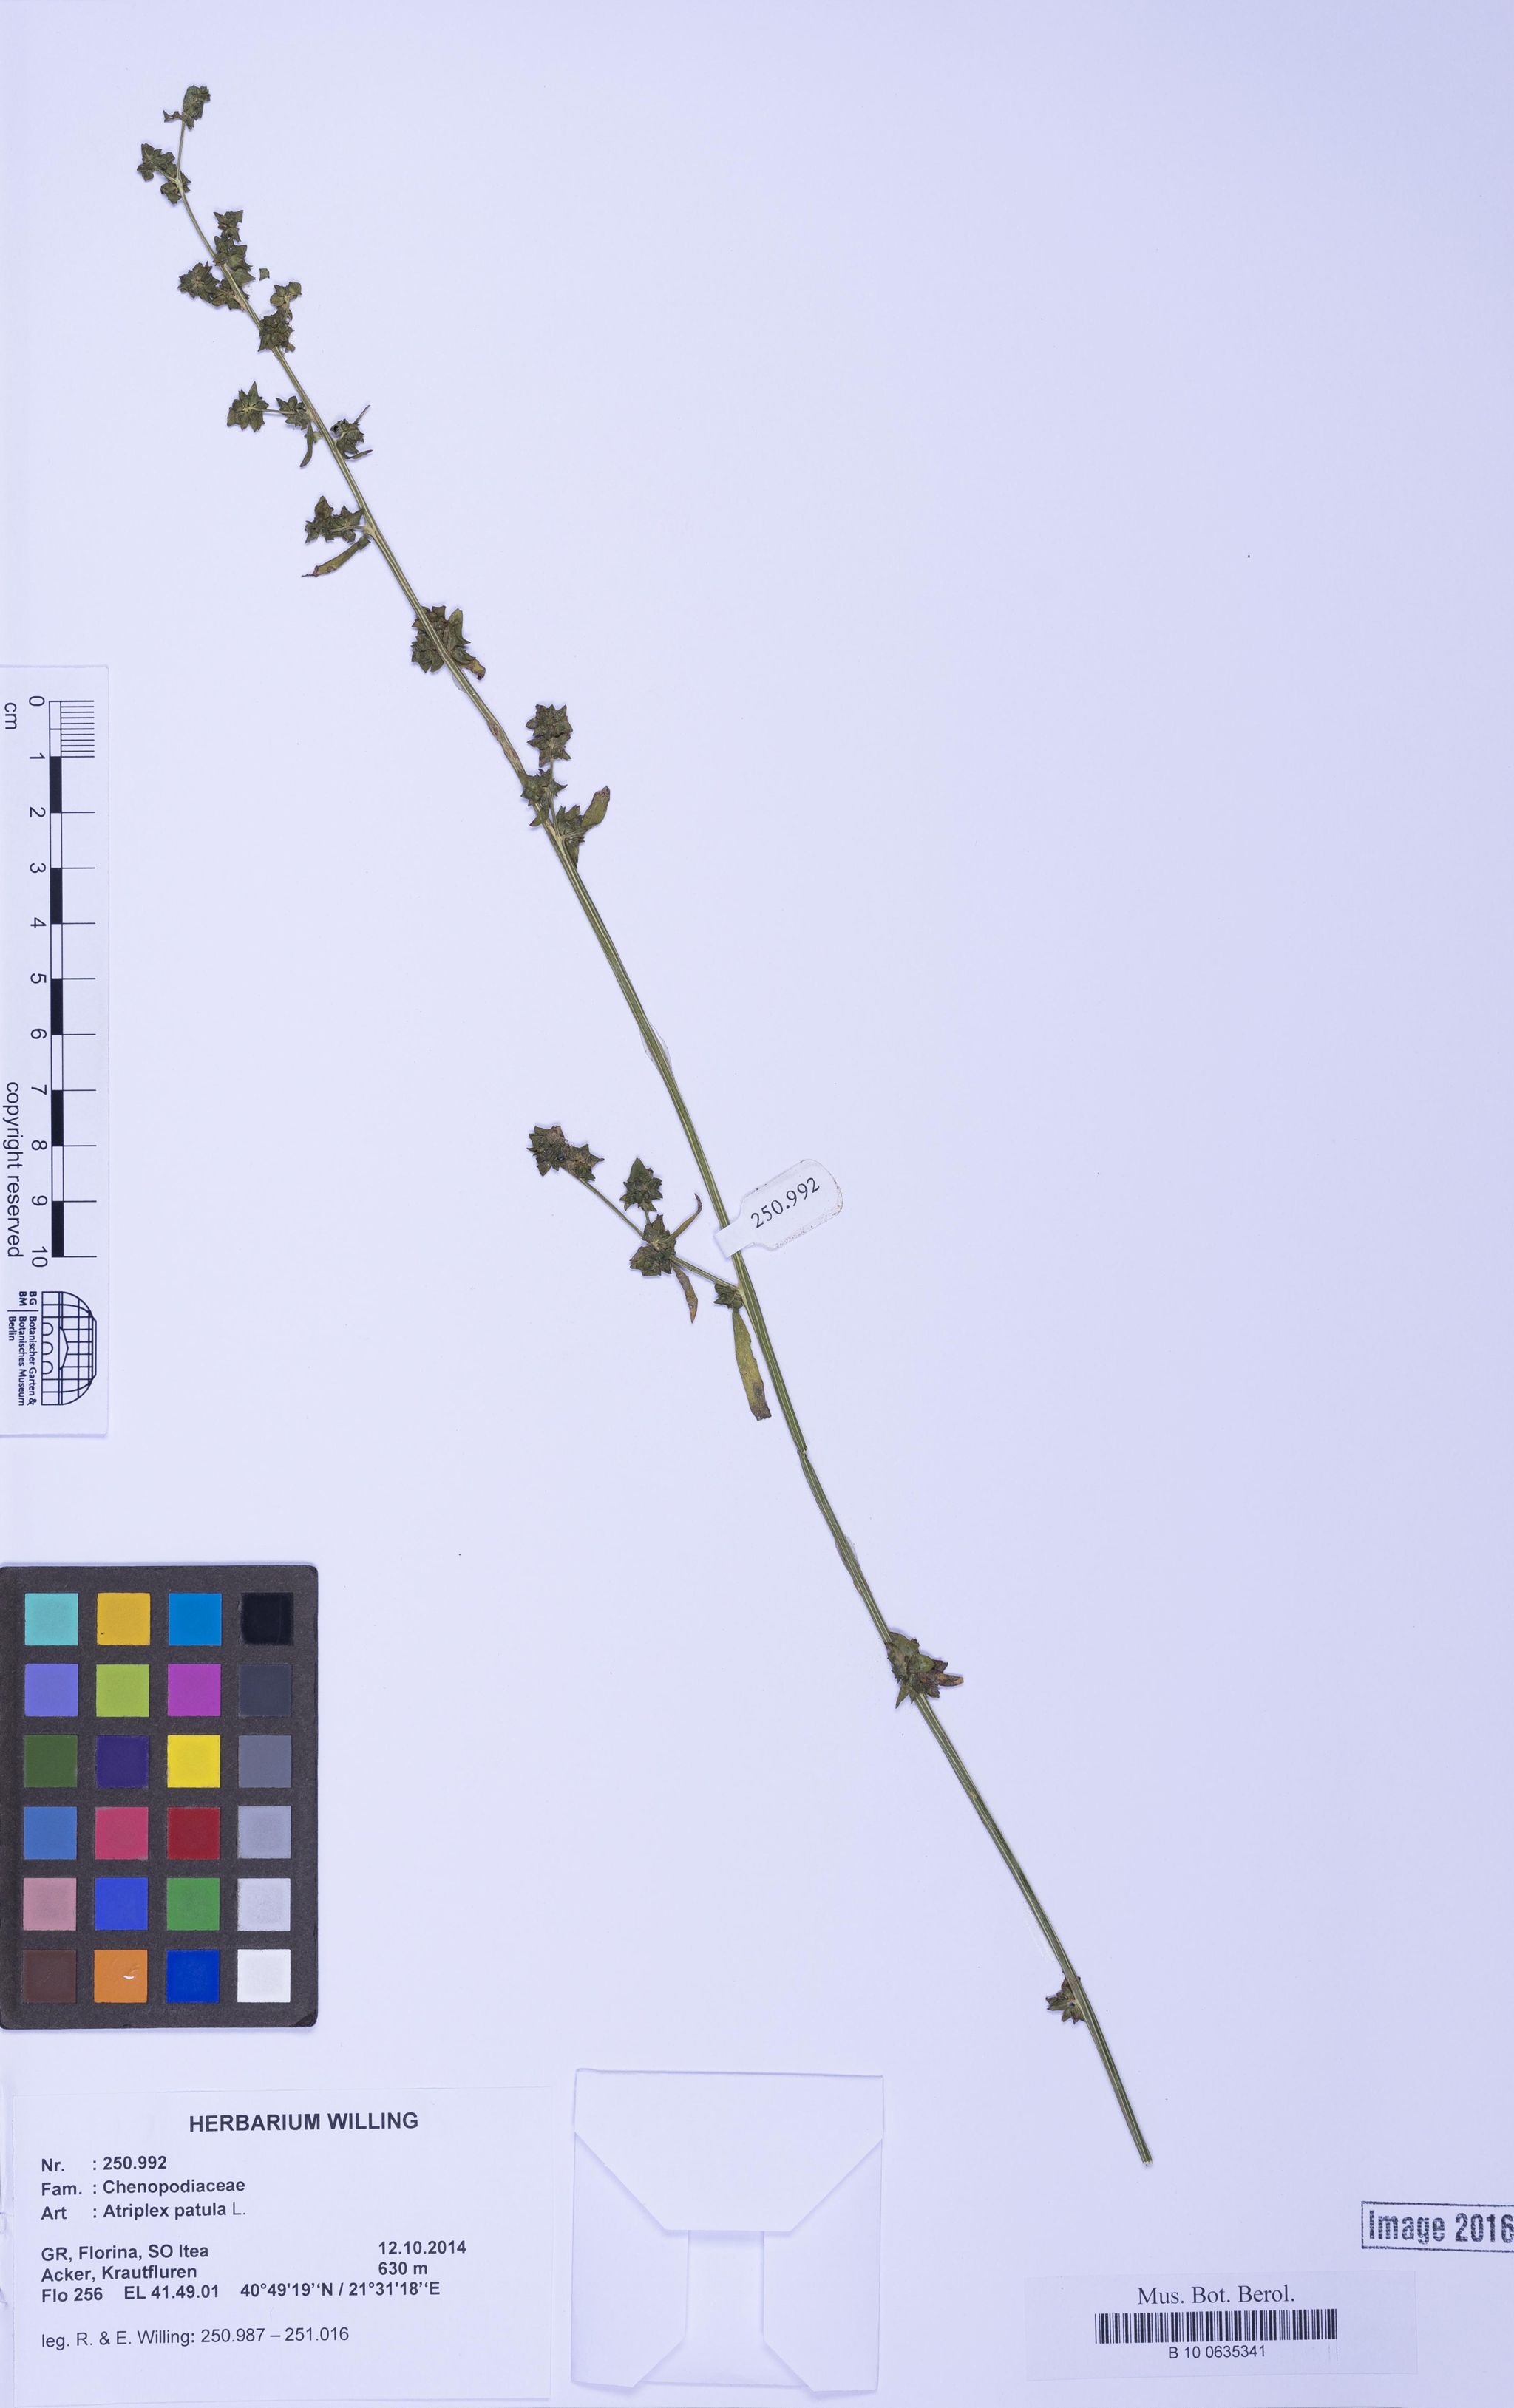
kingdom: Plantae
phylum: Tracheophyta
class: Magnoliopsida
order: Caryophyllales
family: Amaranthaceae
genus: Atriplex
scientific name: Atriplex patula
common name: Common orache
